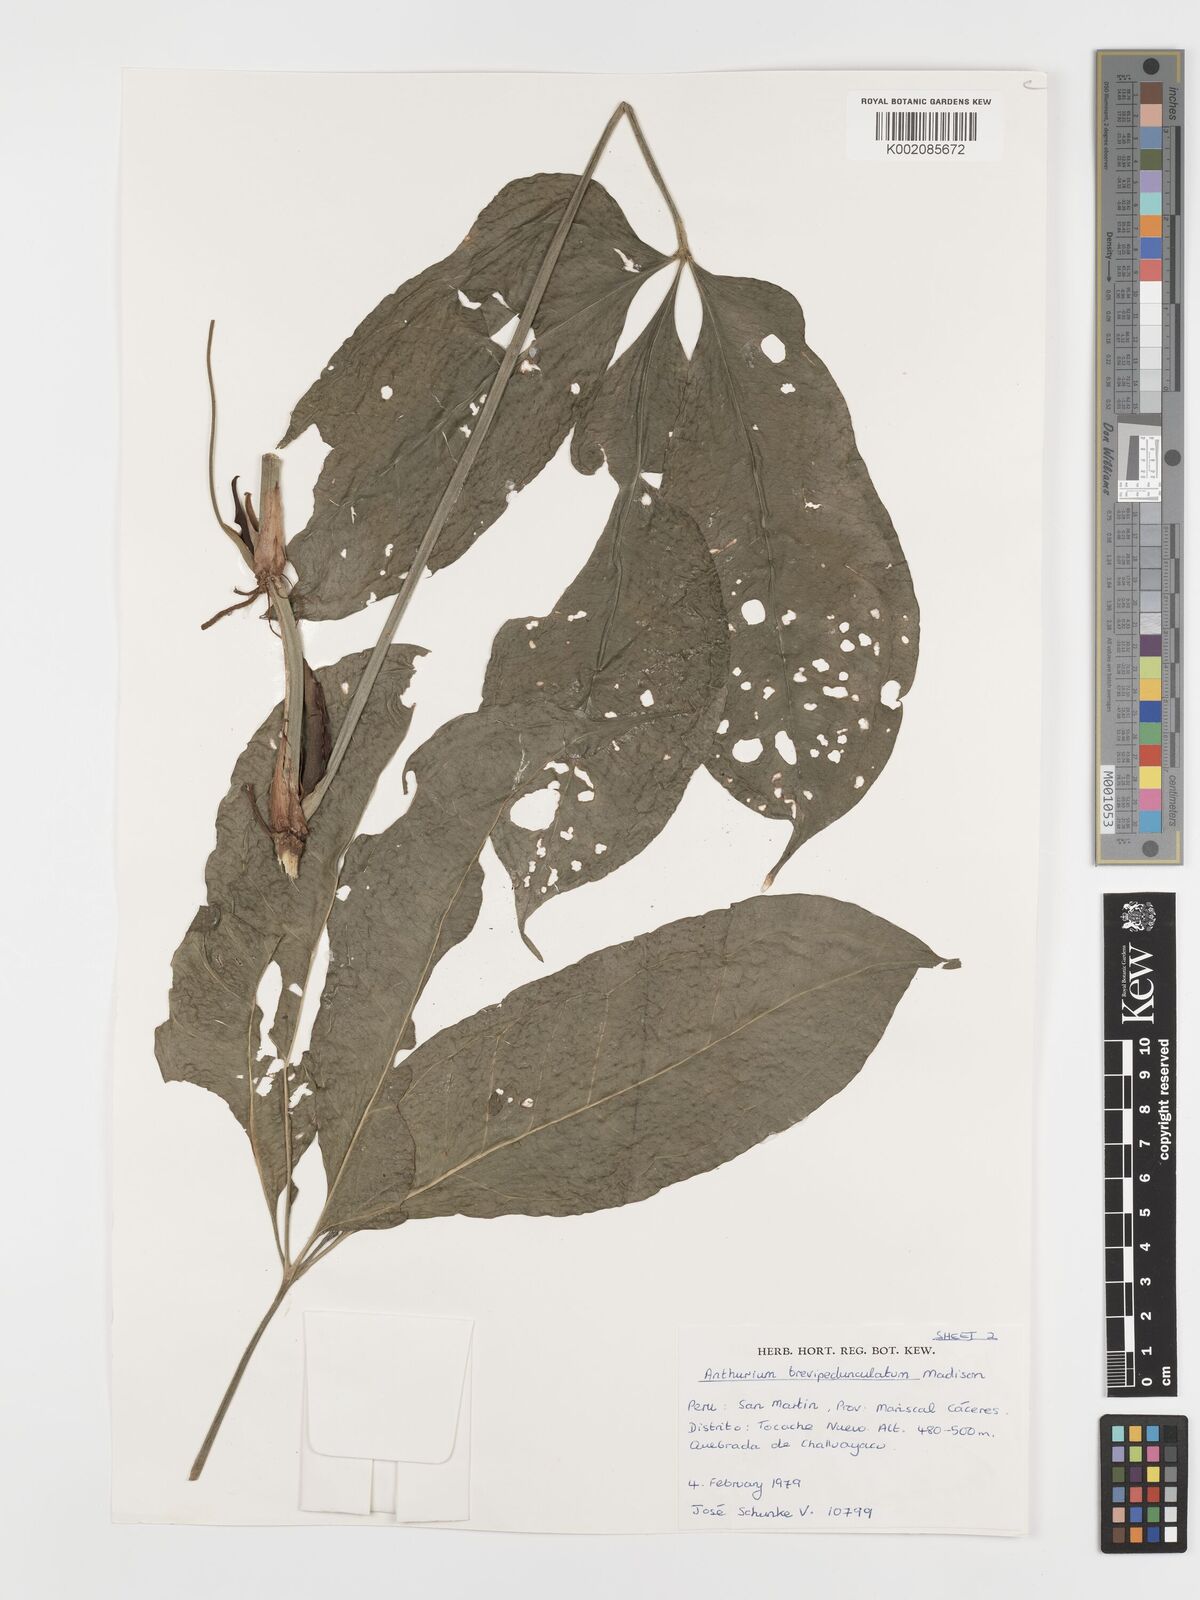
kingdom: Plantae
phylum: Tracheophyta
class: Liliopsida
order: Alismatales
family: Araceae
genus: Anthurium
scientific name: Anthurium brevipedunculatum
